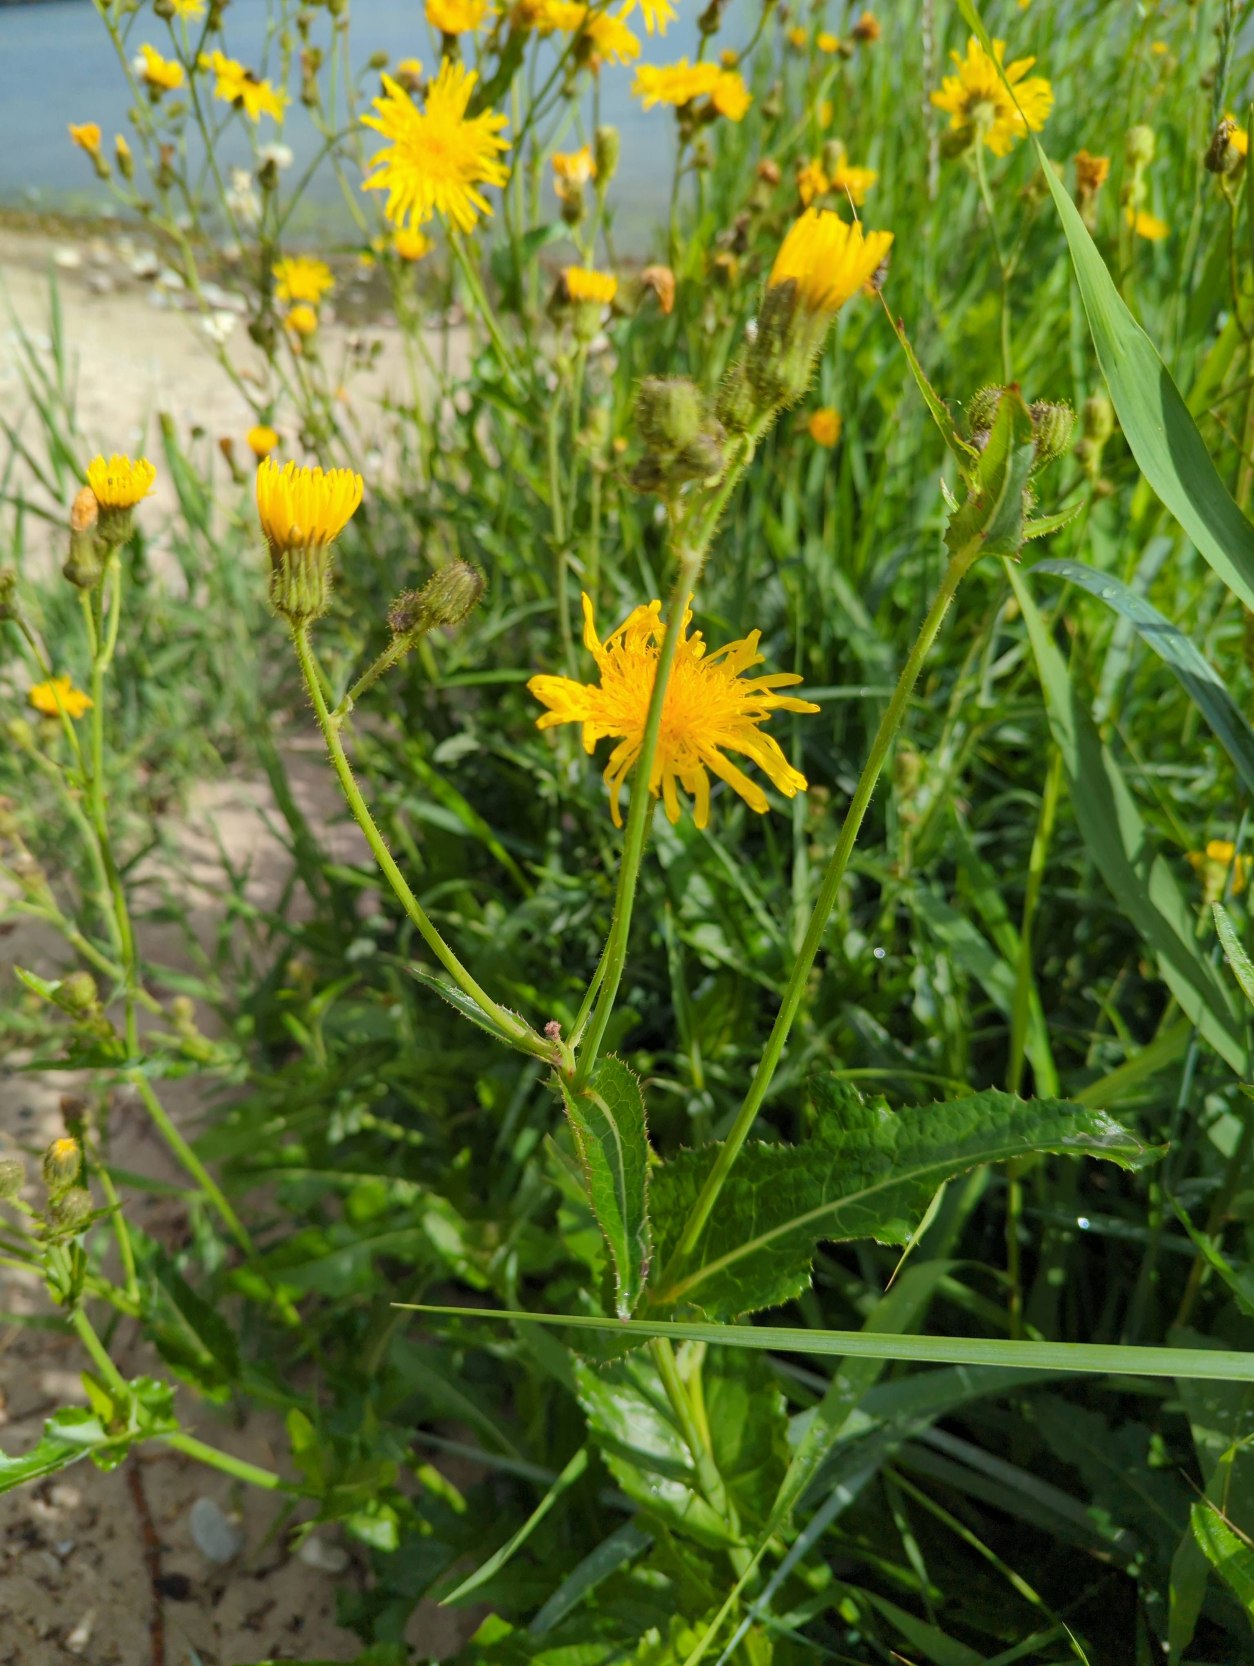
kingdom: Plantae
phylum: Tracheophyta
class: Magnoliopsida
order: Asterales
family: Asteraceae
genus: Sonchus
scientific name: Sonchus arvensis
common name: Ager-svinemælk
